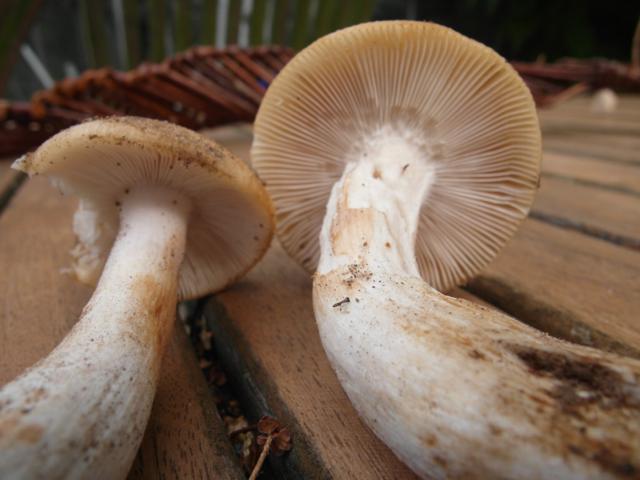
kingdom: Fungi
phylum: Basidiomycota
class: Agaricomycetes
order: Russulales
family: Russulaceae
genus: Russula
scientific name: Russula grata
